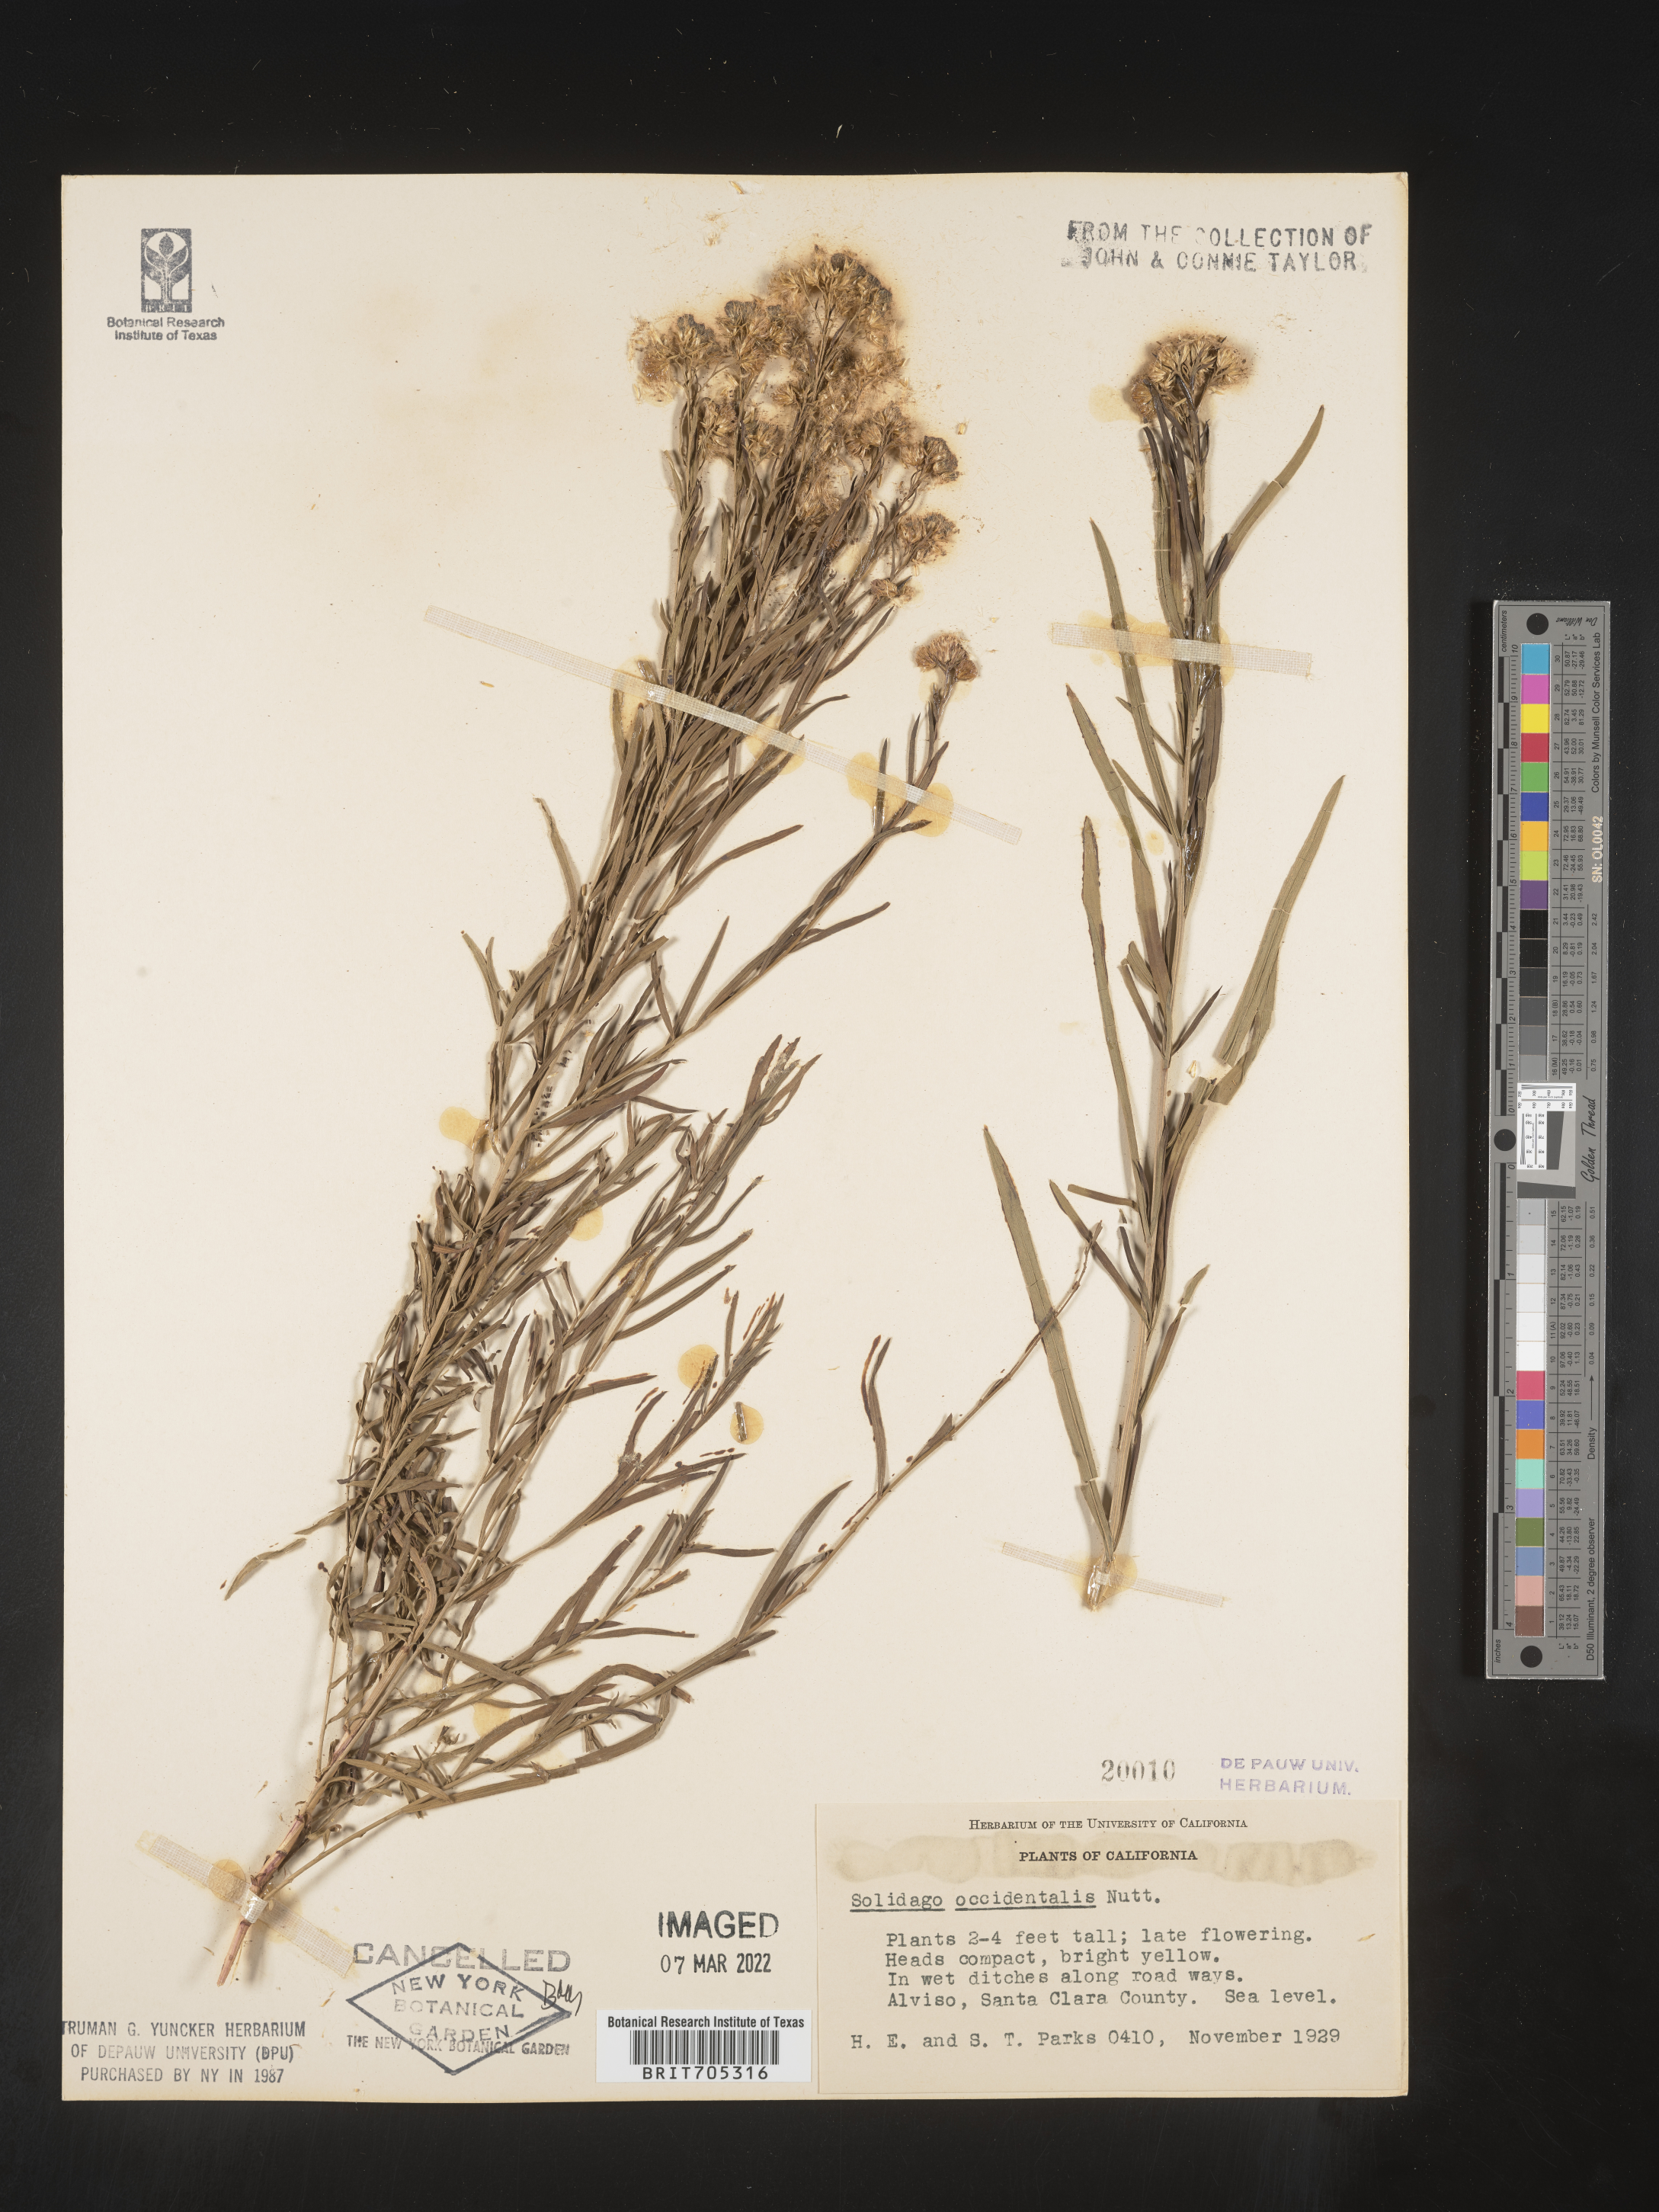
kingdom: Plantae
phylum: Tracheophyta
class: Magnoliopsida
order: Asterales
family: Asteraceae
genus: Euthamia
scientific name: Euthamia occidentalis
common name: Western goldentop
